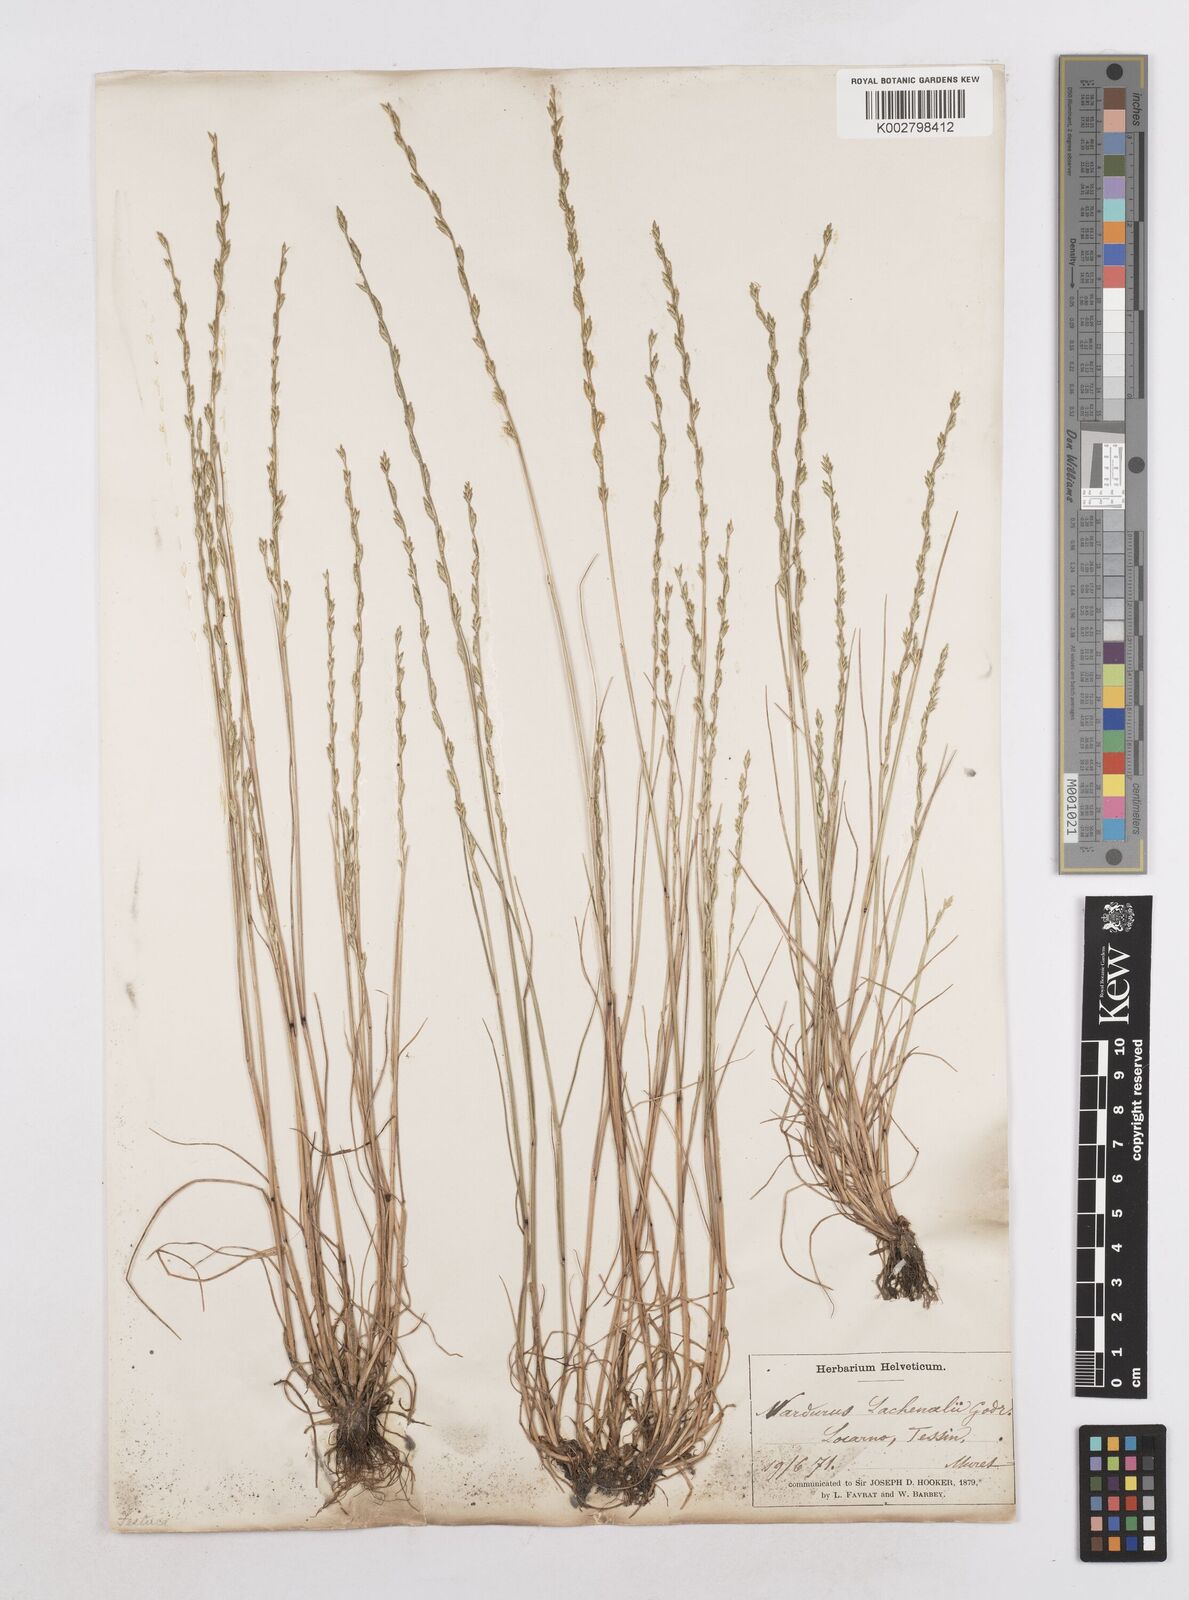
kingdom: Plantae
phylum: Tracheophyta
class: Liliopsida
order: Poales
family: Poaceae
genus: Festuca
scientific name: Festuca lachenalii
